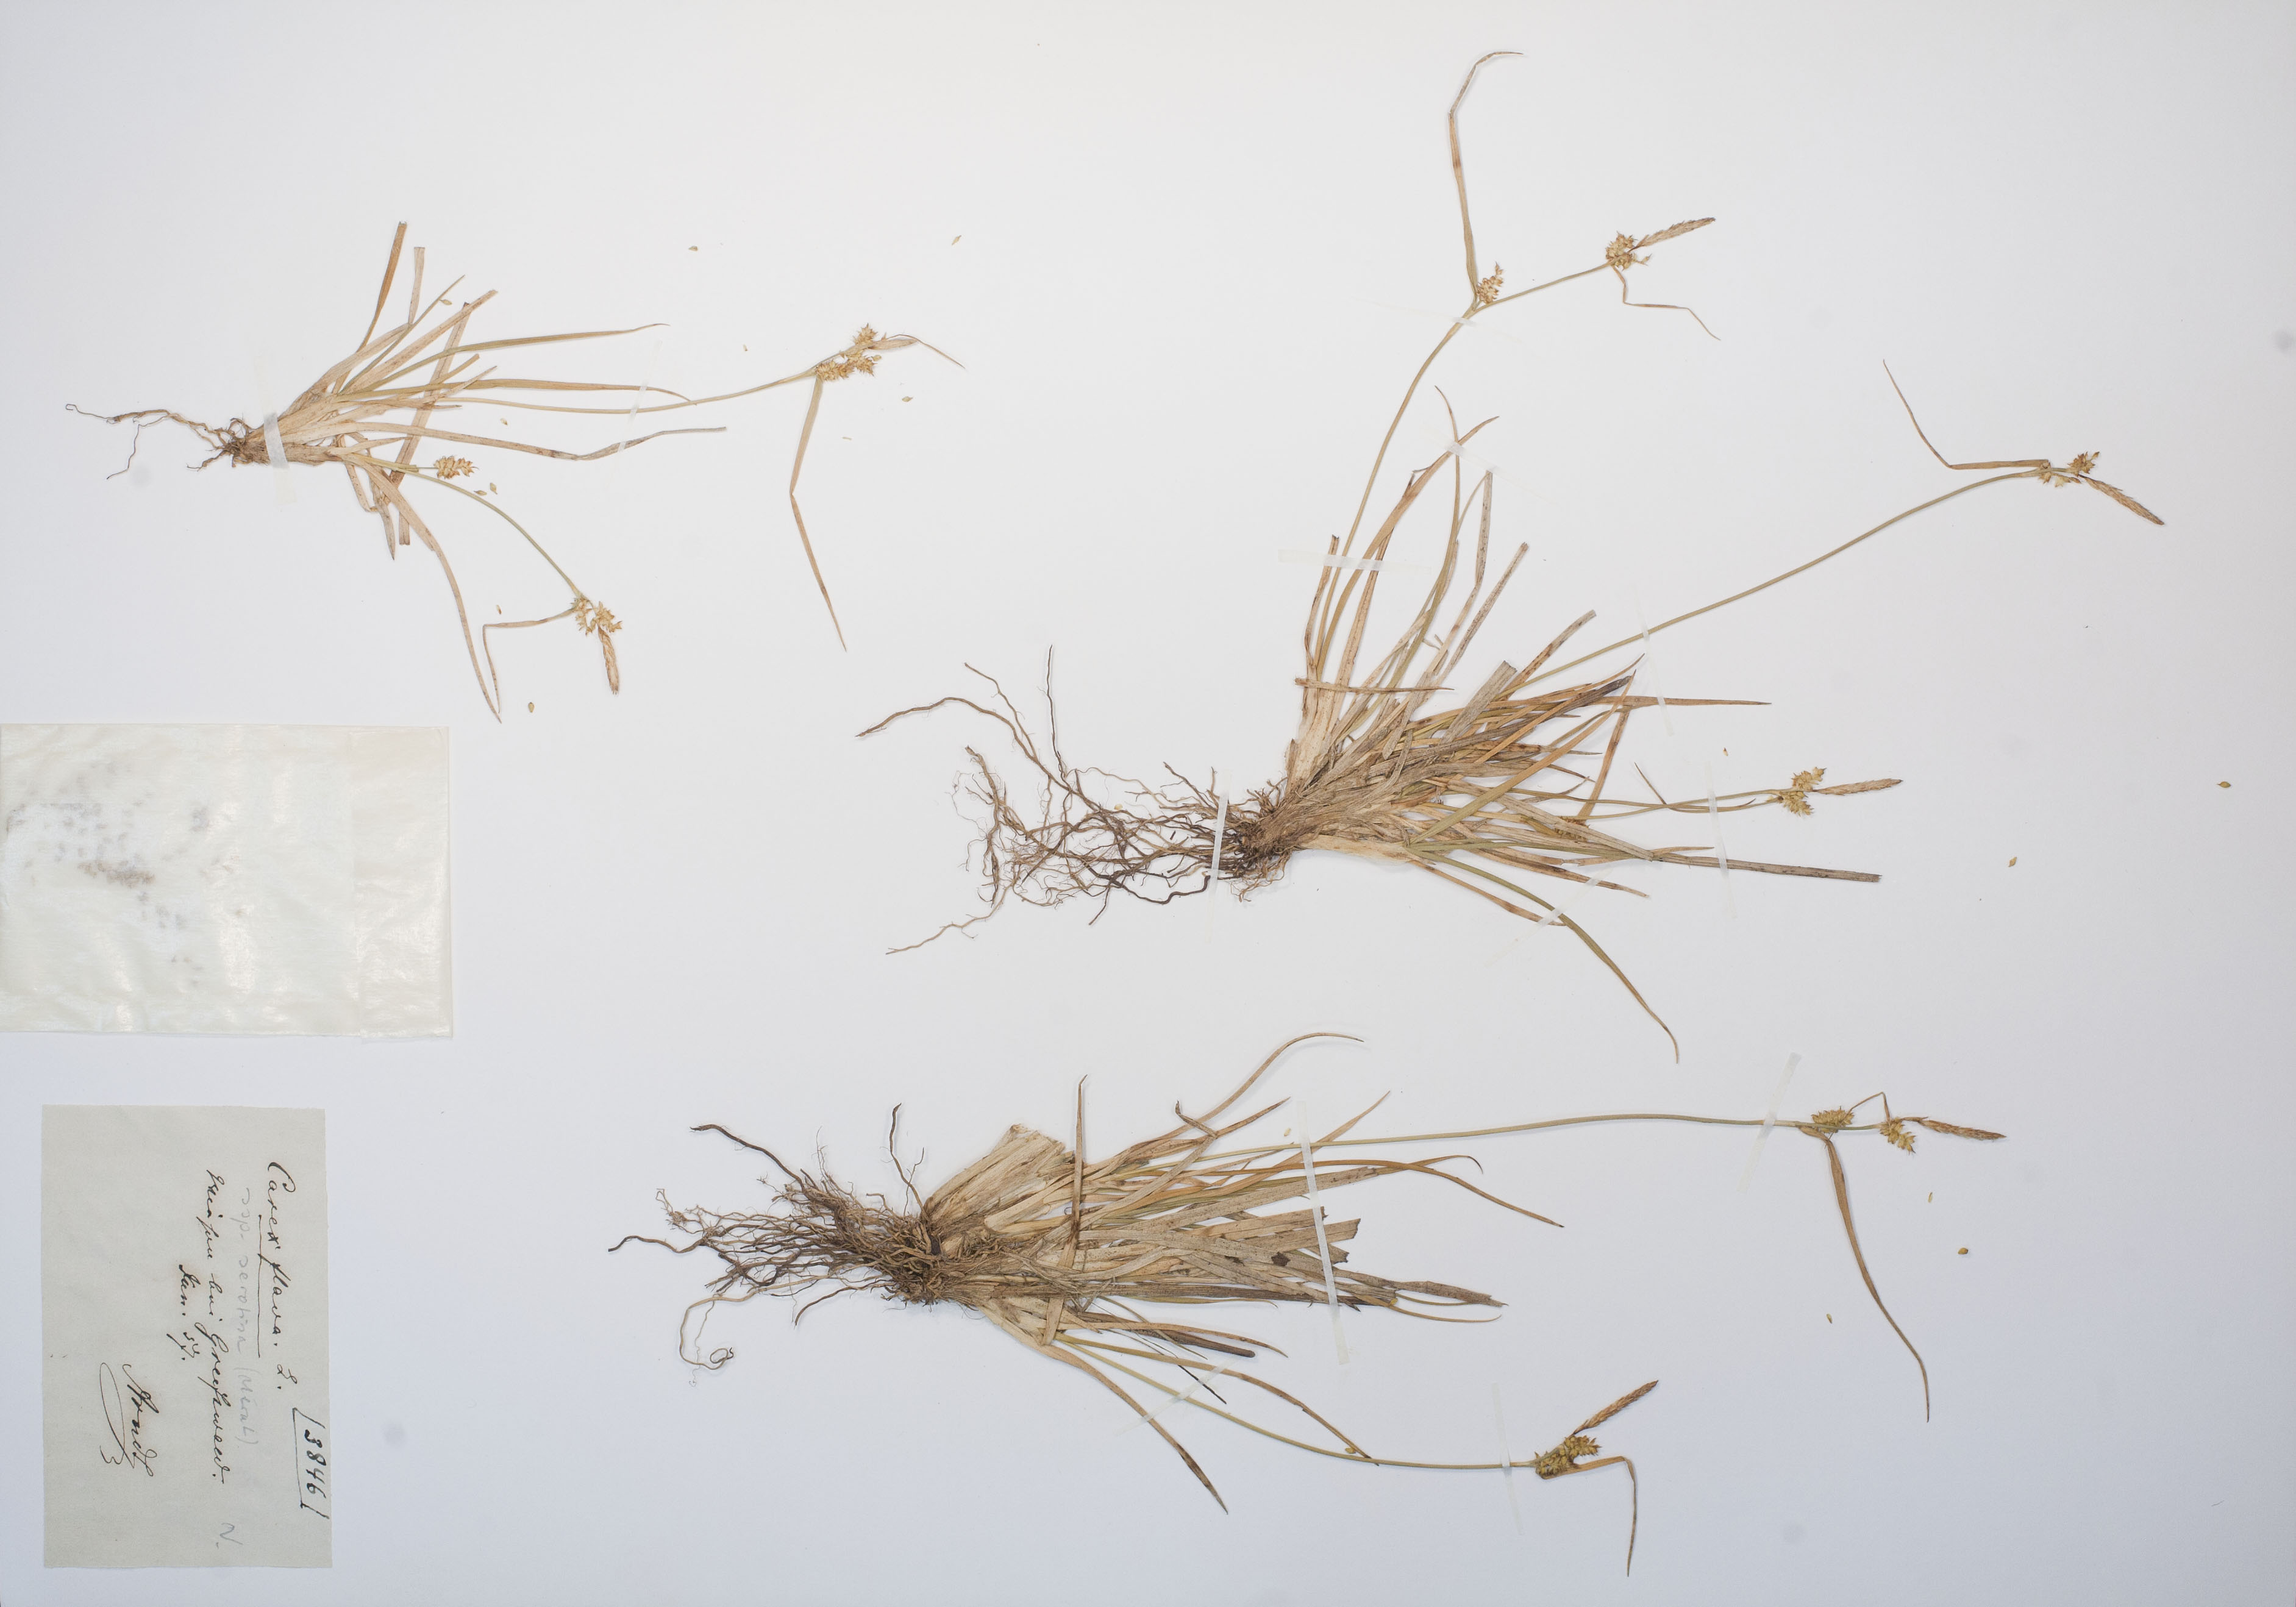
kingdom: Plantae
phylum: Tracheophyta
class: Liliopsida
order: Poales
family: Cyperaceae
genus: Carex
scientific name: Carex oederi
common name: Common & small-fruited yellow-sedge
